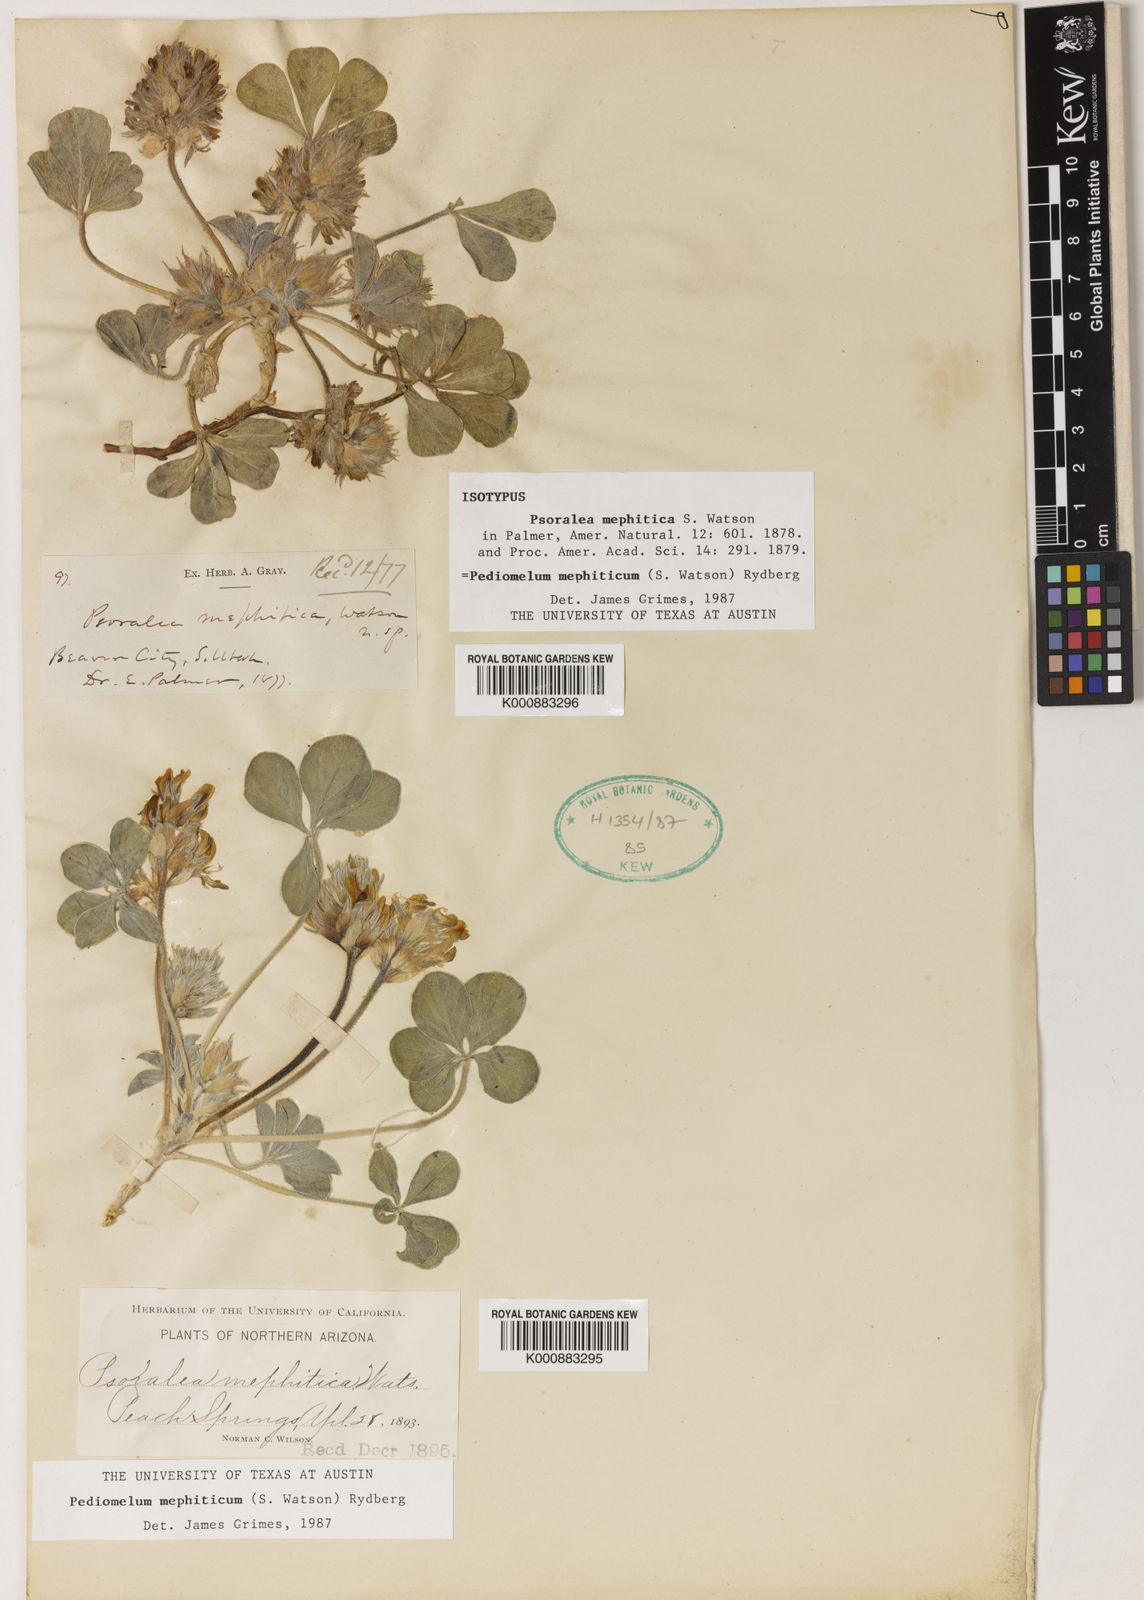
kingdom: Plantae
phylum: Tracheophyta
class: Magnoliopsida
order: Fabales
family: Fabaceae
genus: Pediomelum
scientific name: Pediomelum mephiticum
